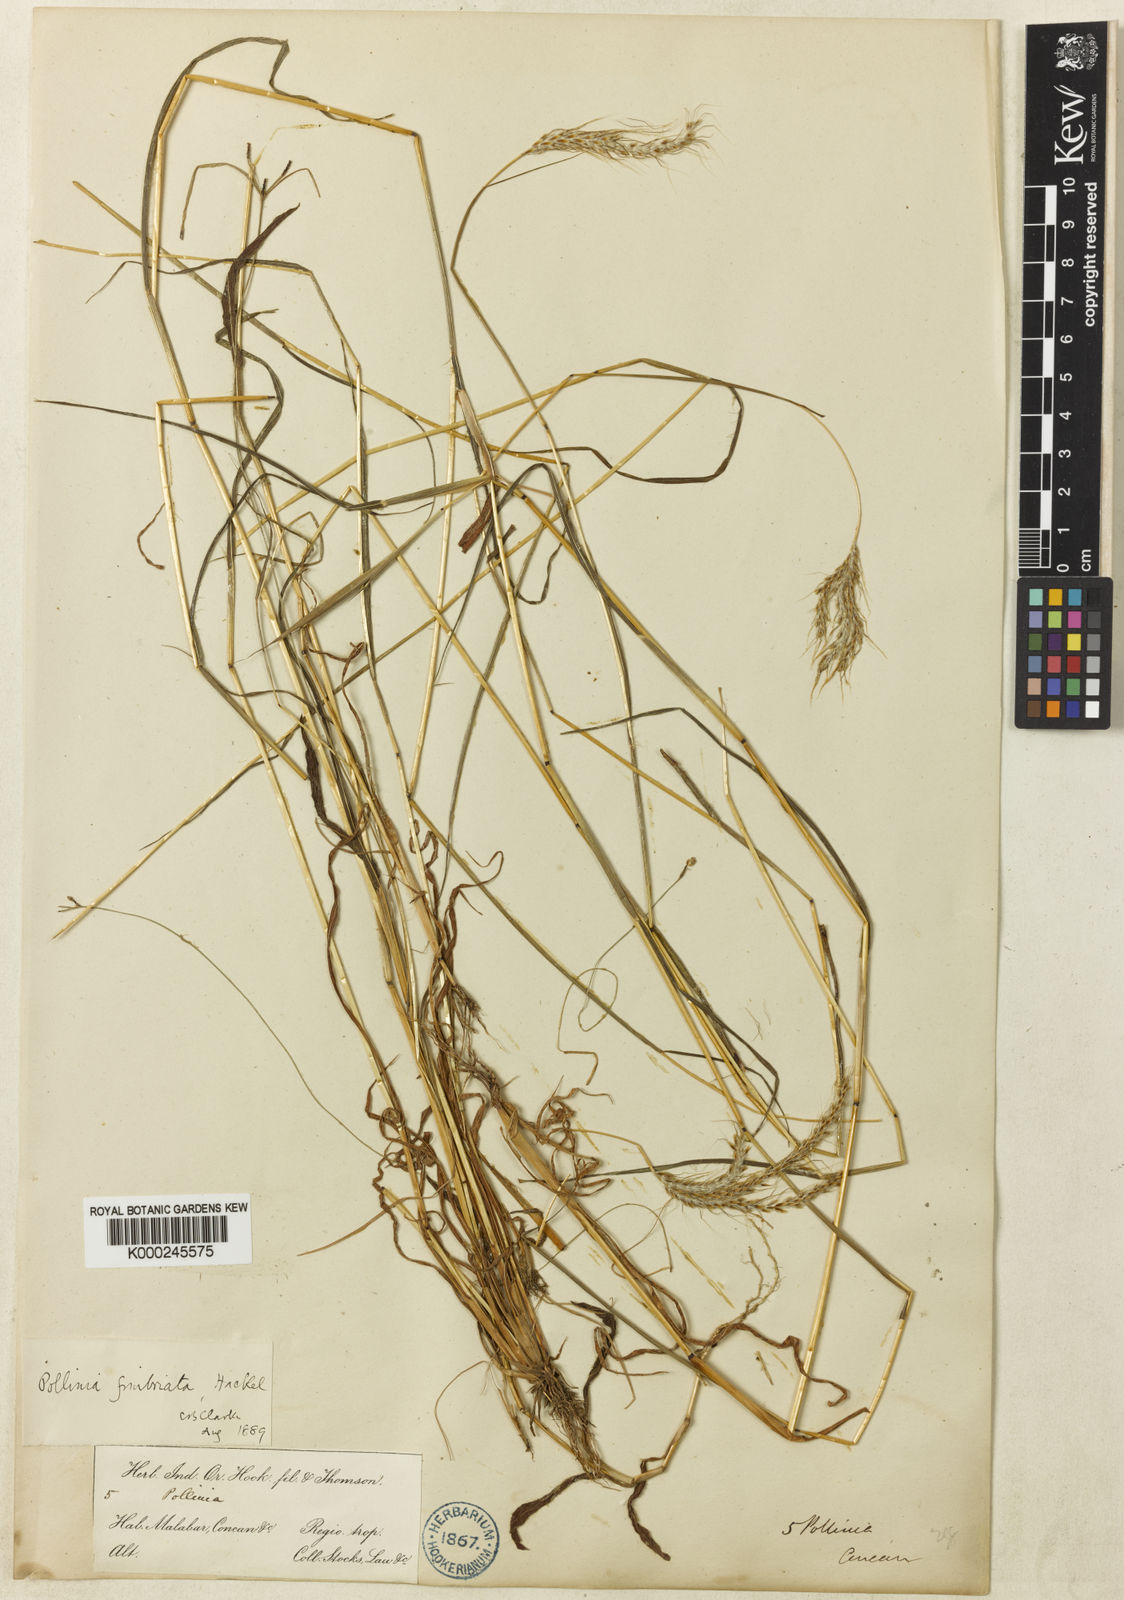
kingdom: Plantae
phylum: Tracheophyta
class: Liliopsida
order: Poales
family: Poaceae
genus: Eulalia
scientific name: Eulalia conjugata
